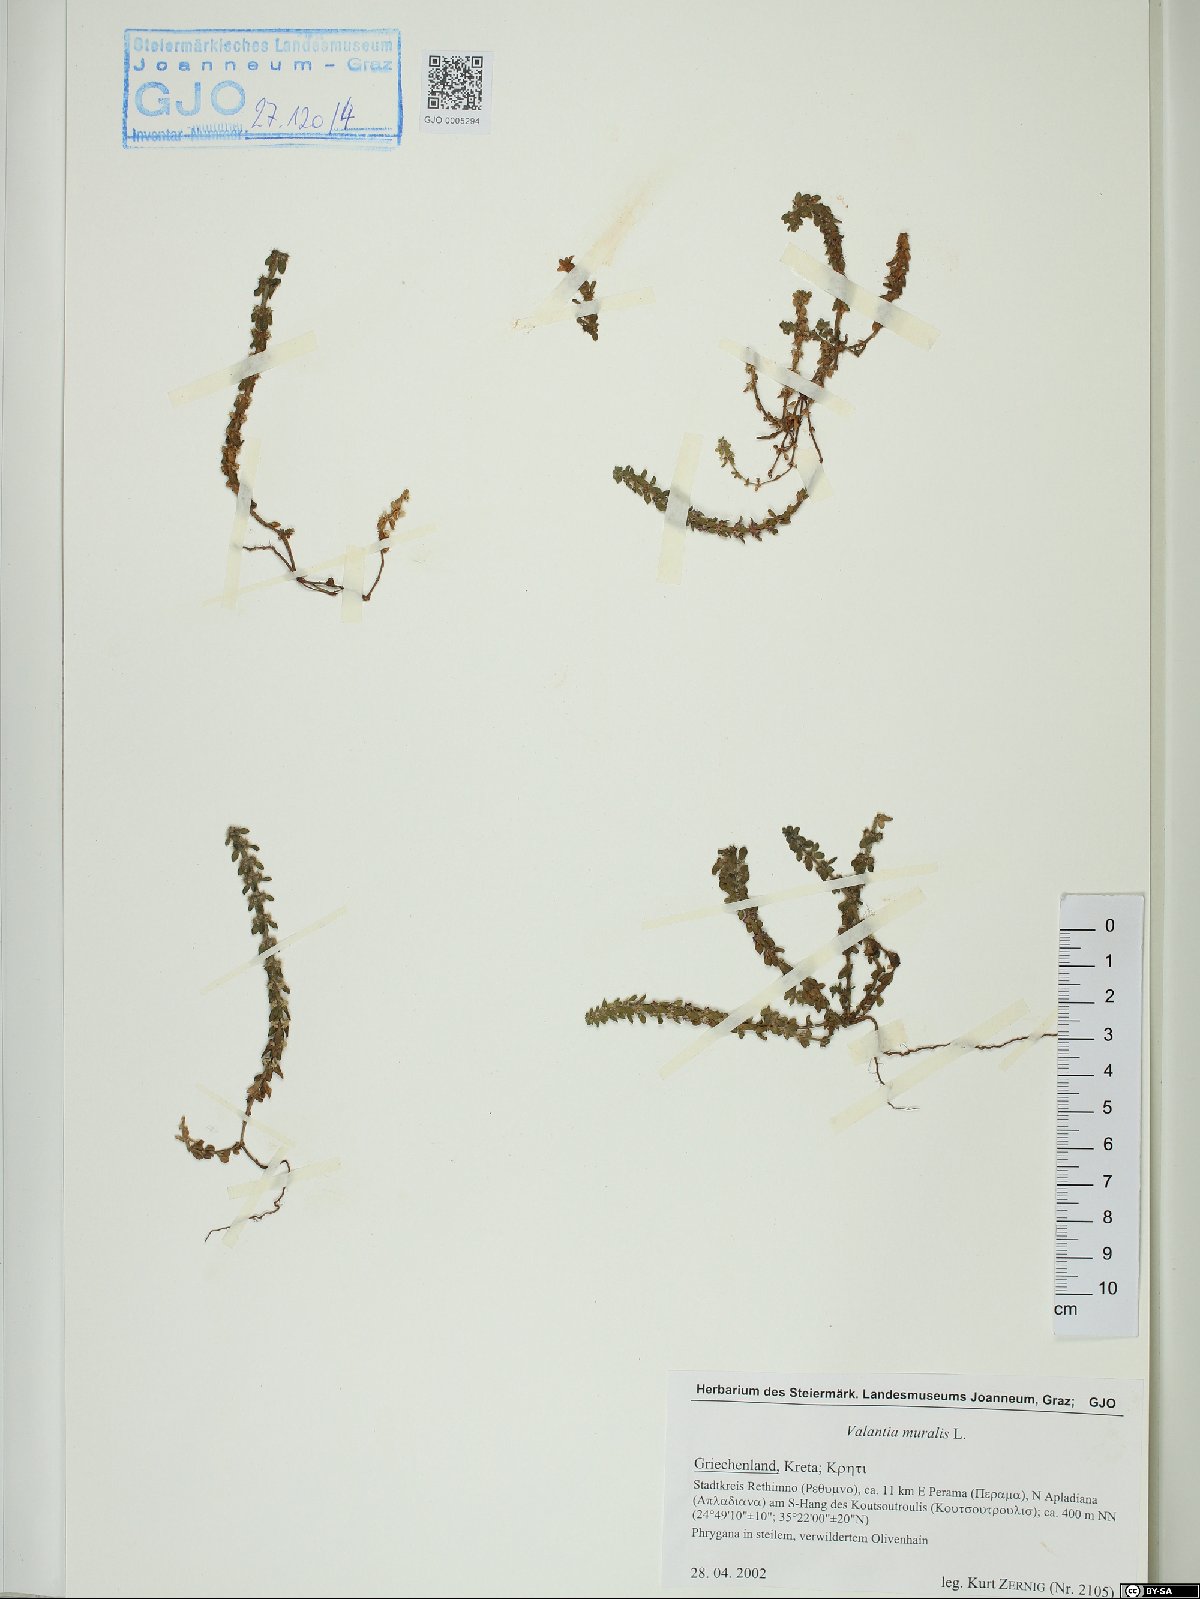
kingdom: Plantae
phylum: Tracheophyta
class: Magnoliopsida
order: Gentianales
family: Rubiaceae
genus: Valantia
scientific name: Valantia muralis
